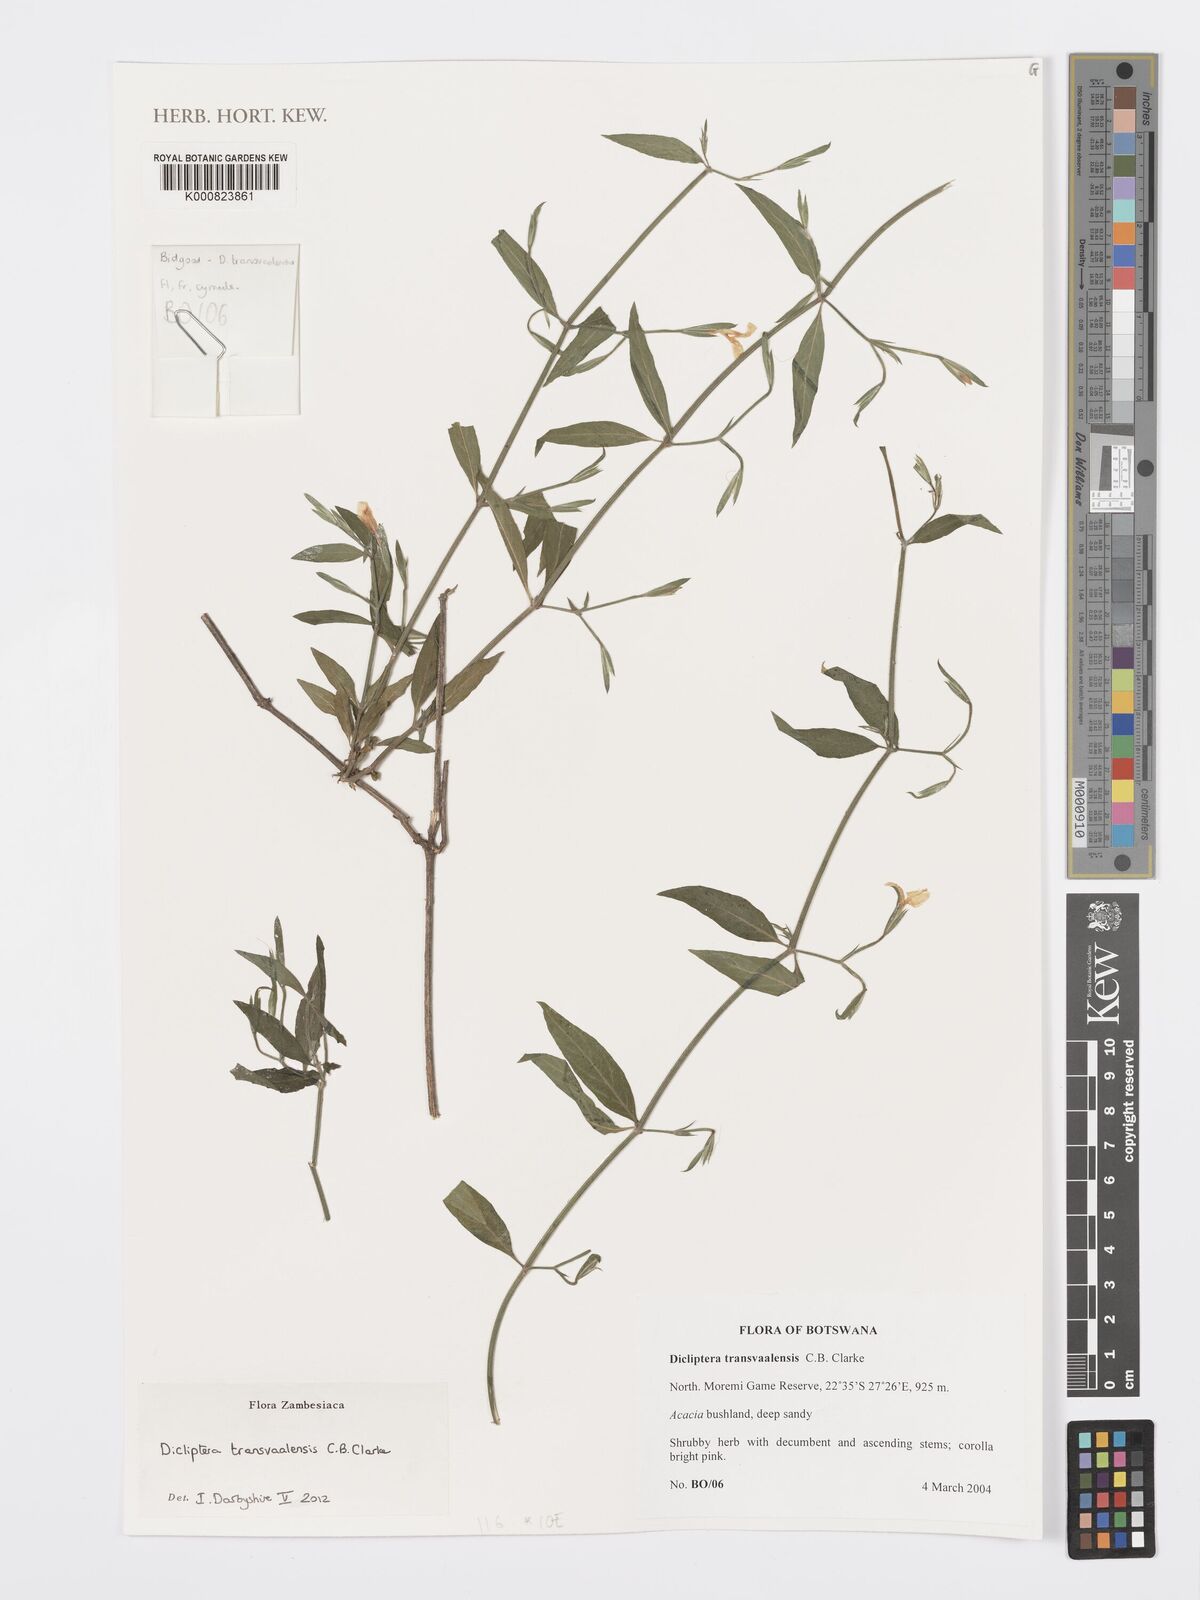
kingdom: Plantae
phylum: Tracheophyta
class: Magnoliopsida
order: Lamiales
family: Acanthaceae
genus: Dicliptera
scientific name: Dicliptera transvaalensis
